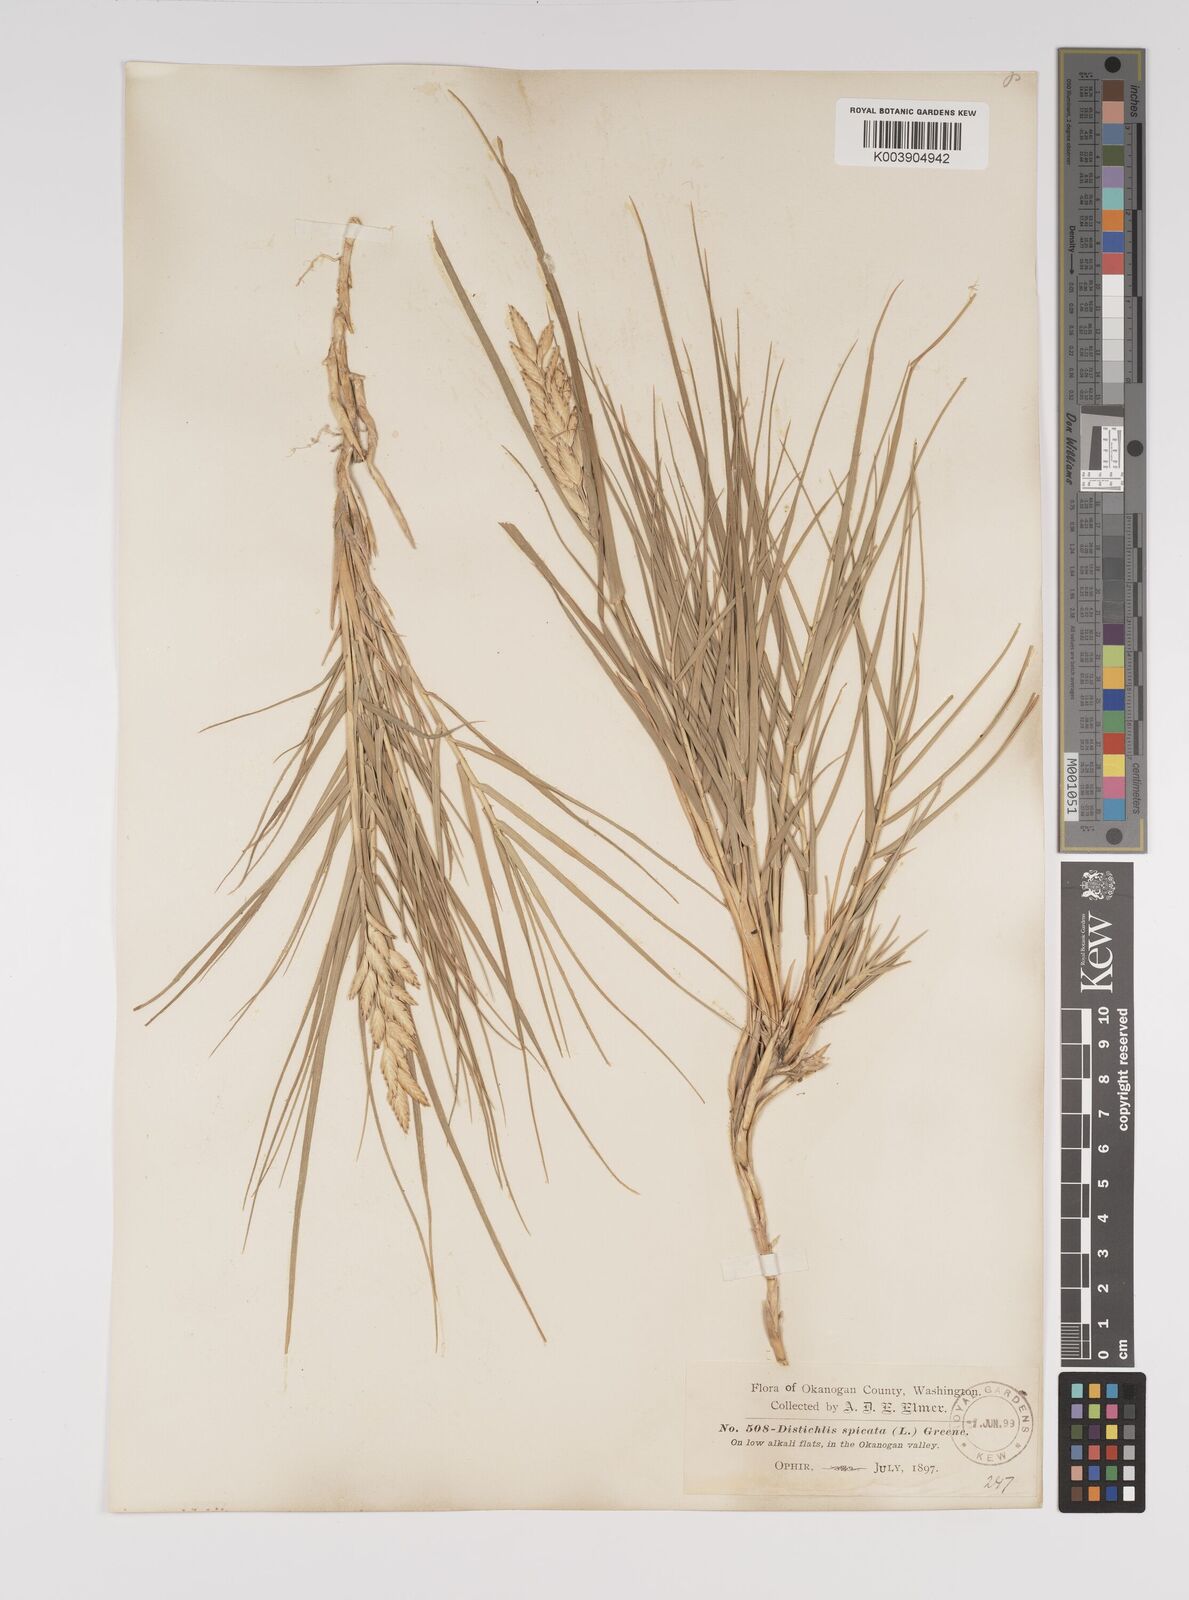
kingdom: Plantae
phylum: Tracheophyta
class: Liliopsida
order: Poales
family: Poaceae
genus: Distichlis
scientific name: Distichlis spicata
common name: Saltgrass
